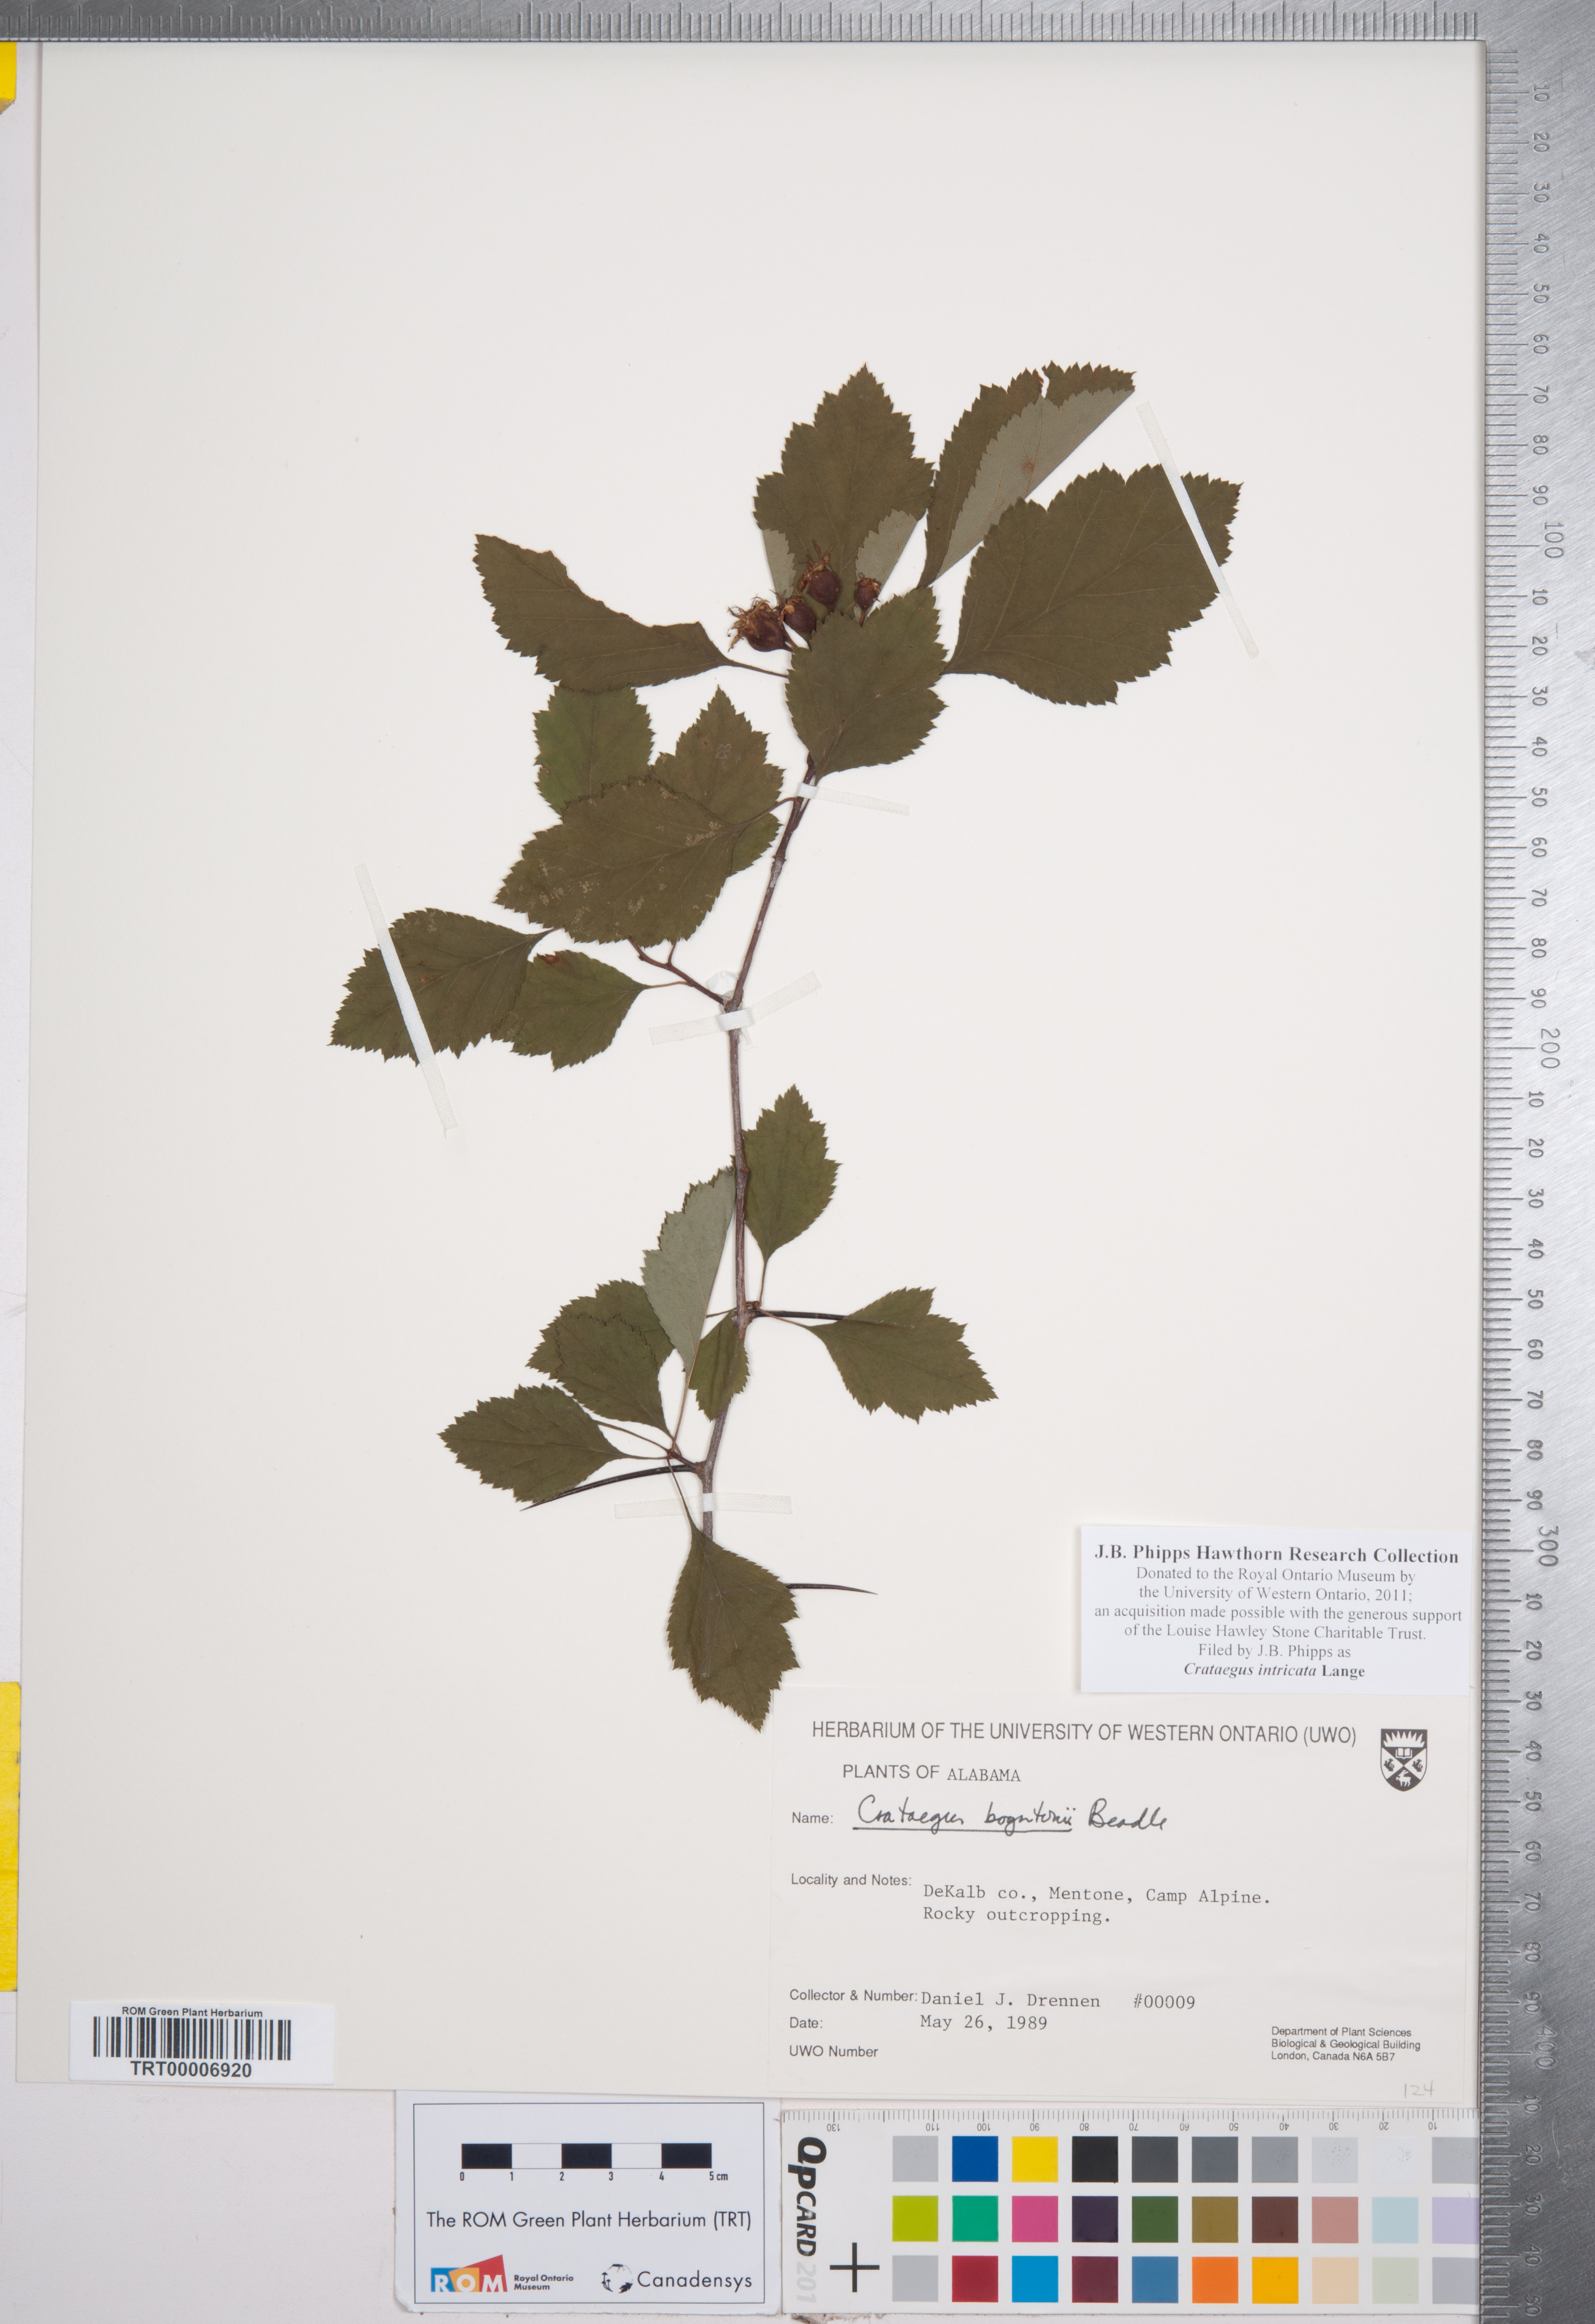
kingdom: Plantae
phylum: Tracheophyta
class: Magnoliopsida
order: Rosales
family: Rosaceae
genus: Crataegus
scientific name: Crataegus intricata
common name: Biltmore hawthorn
